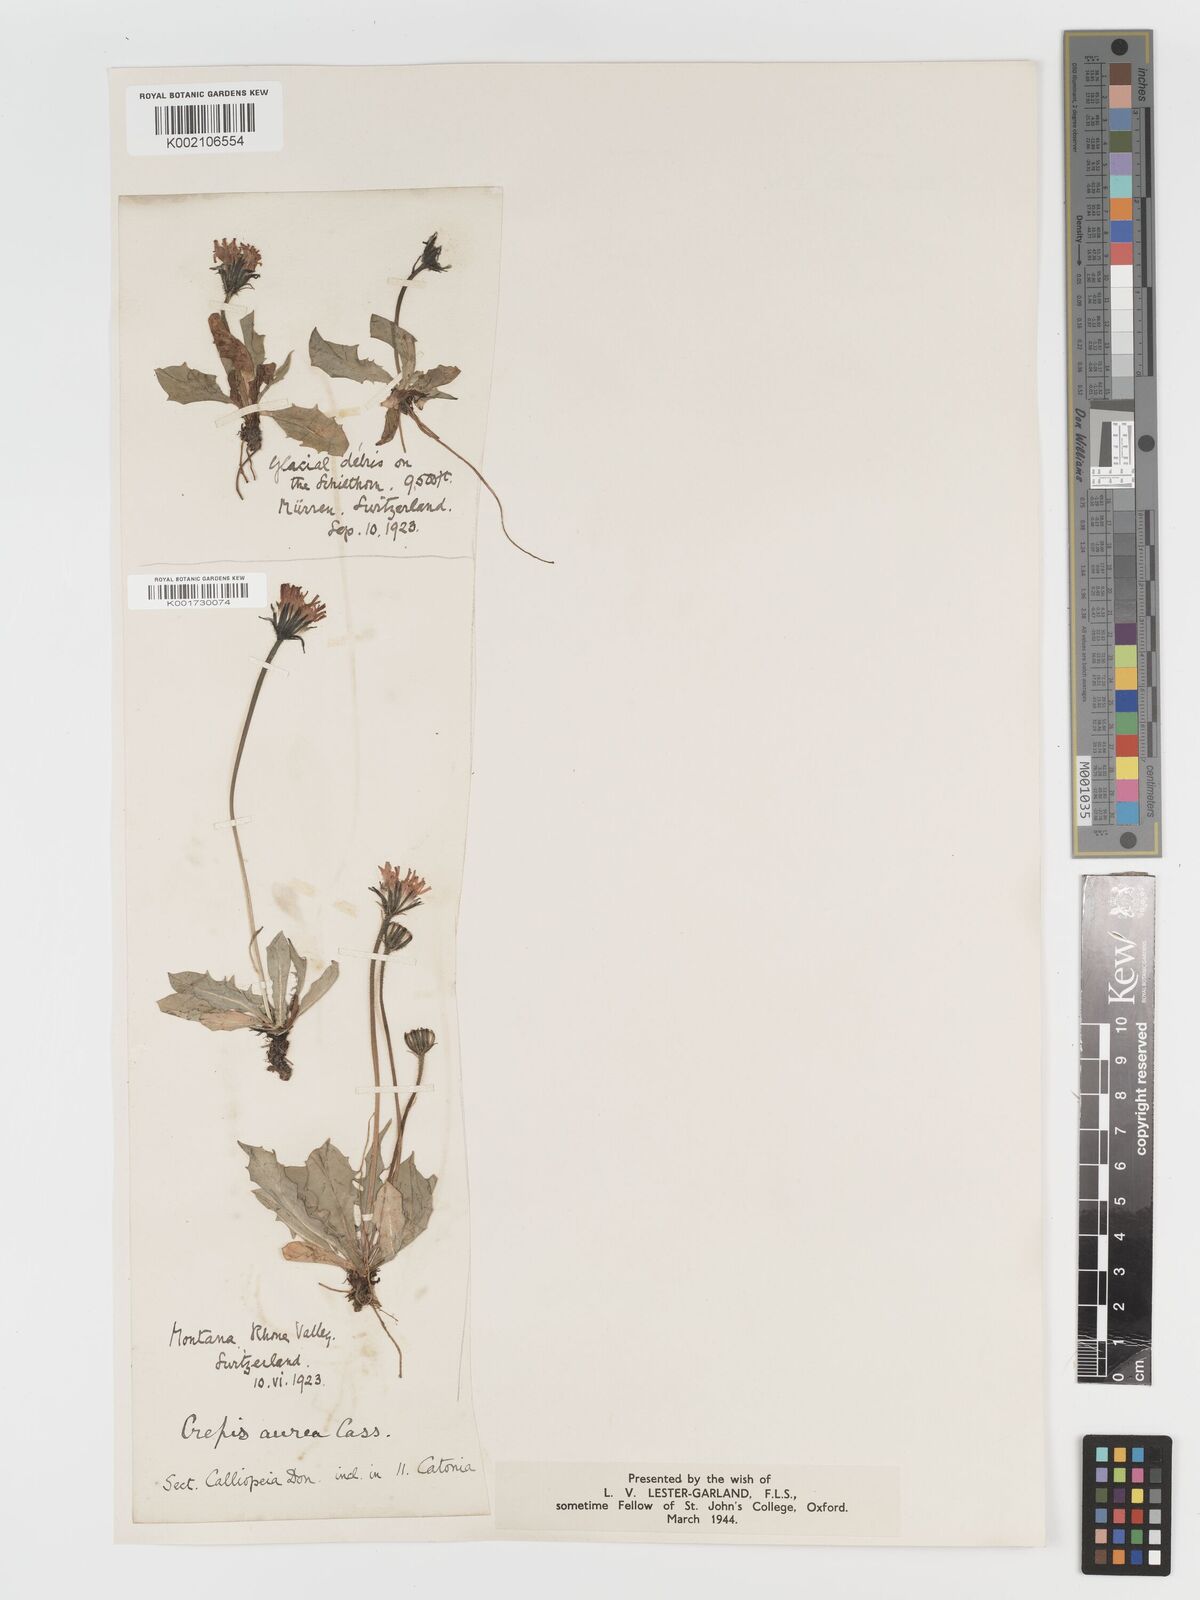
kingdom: Plantae
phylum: Tracheophyta
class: Magnoliopsida
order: Asterales
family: Asteraceae
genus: Crepis
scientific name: Crepis aurea
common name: Golden hawk's-beard
